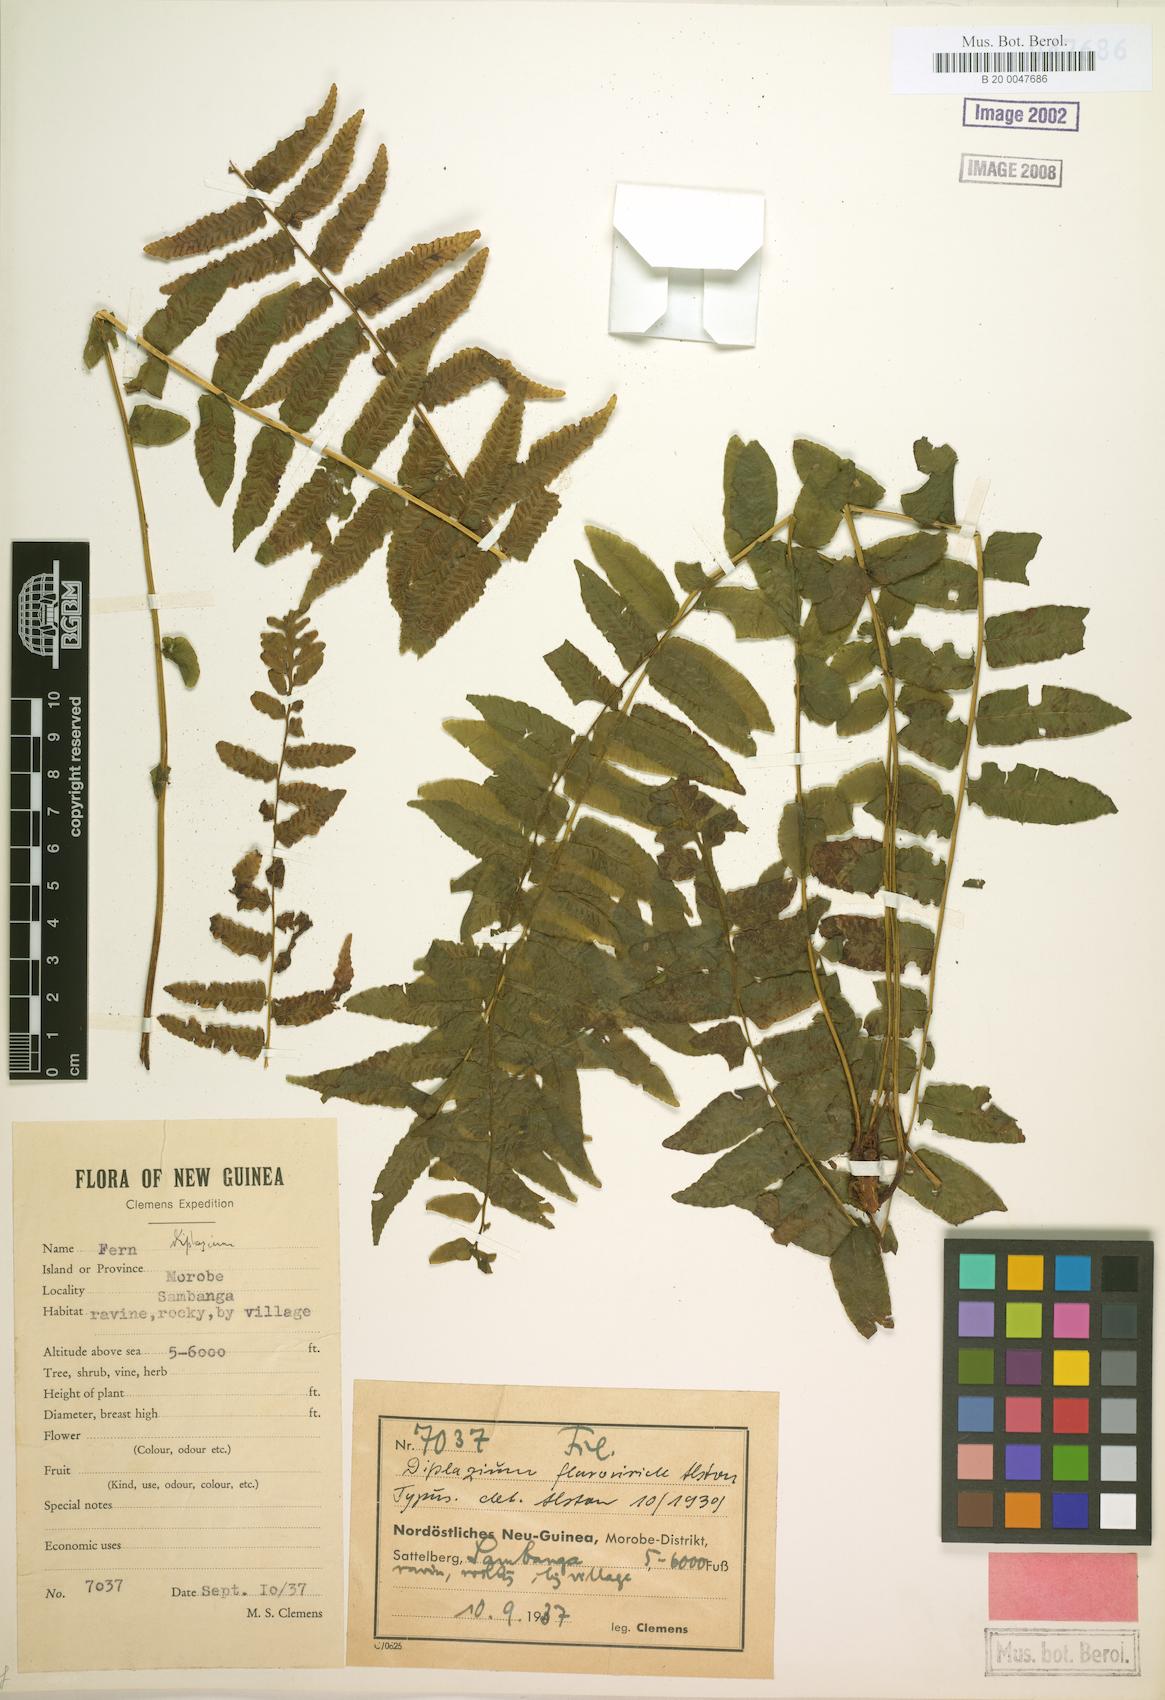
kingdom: Plantae
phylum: Tracheophyta
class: Polypodiopsida
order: Polypodiales
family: Diplaziopsidaceae
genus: Diplaziopsis
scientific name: Diplaziopsis flavoviridis
